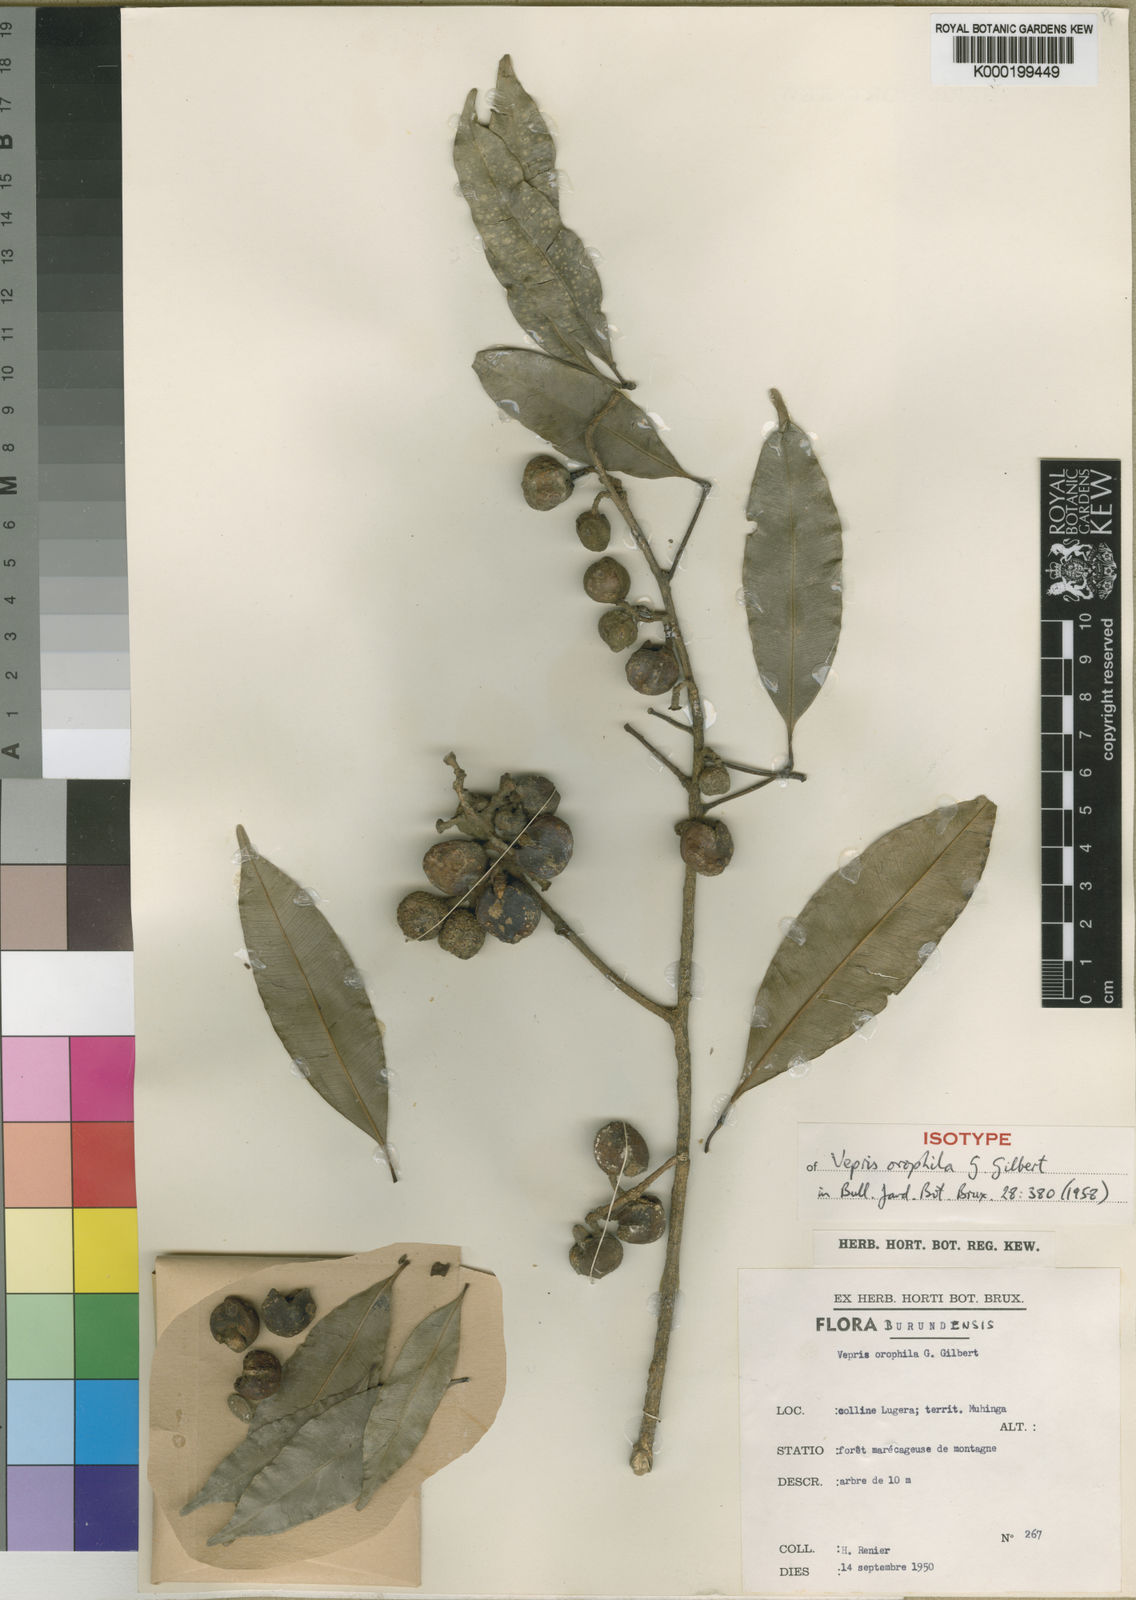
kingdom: Plantae
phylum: Tracheophyta
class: Magnoliopsida
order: Sapindales
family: Rutaceae
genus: Vepris
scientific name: Vepris stolzii
